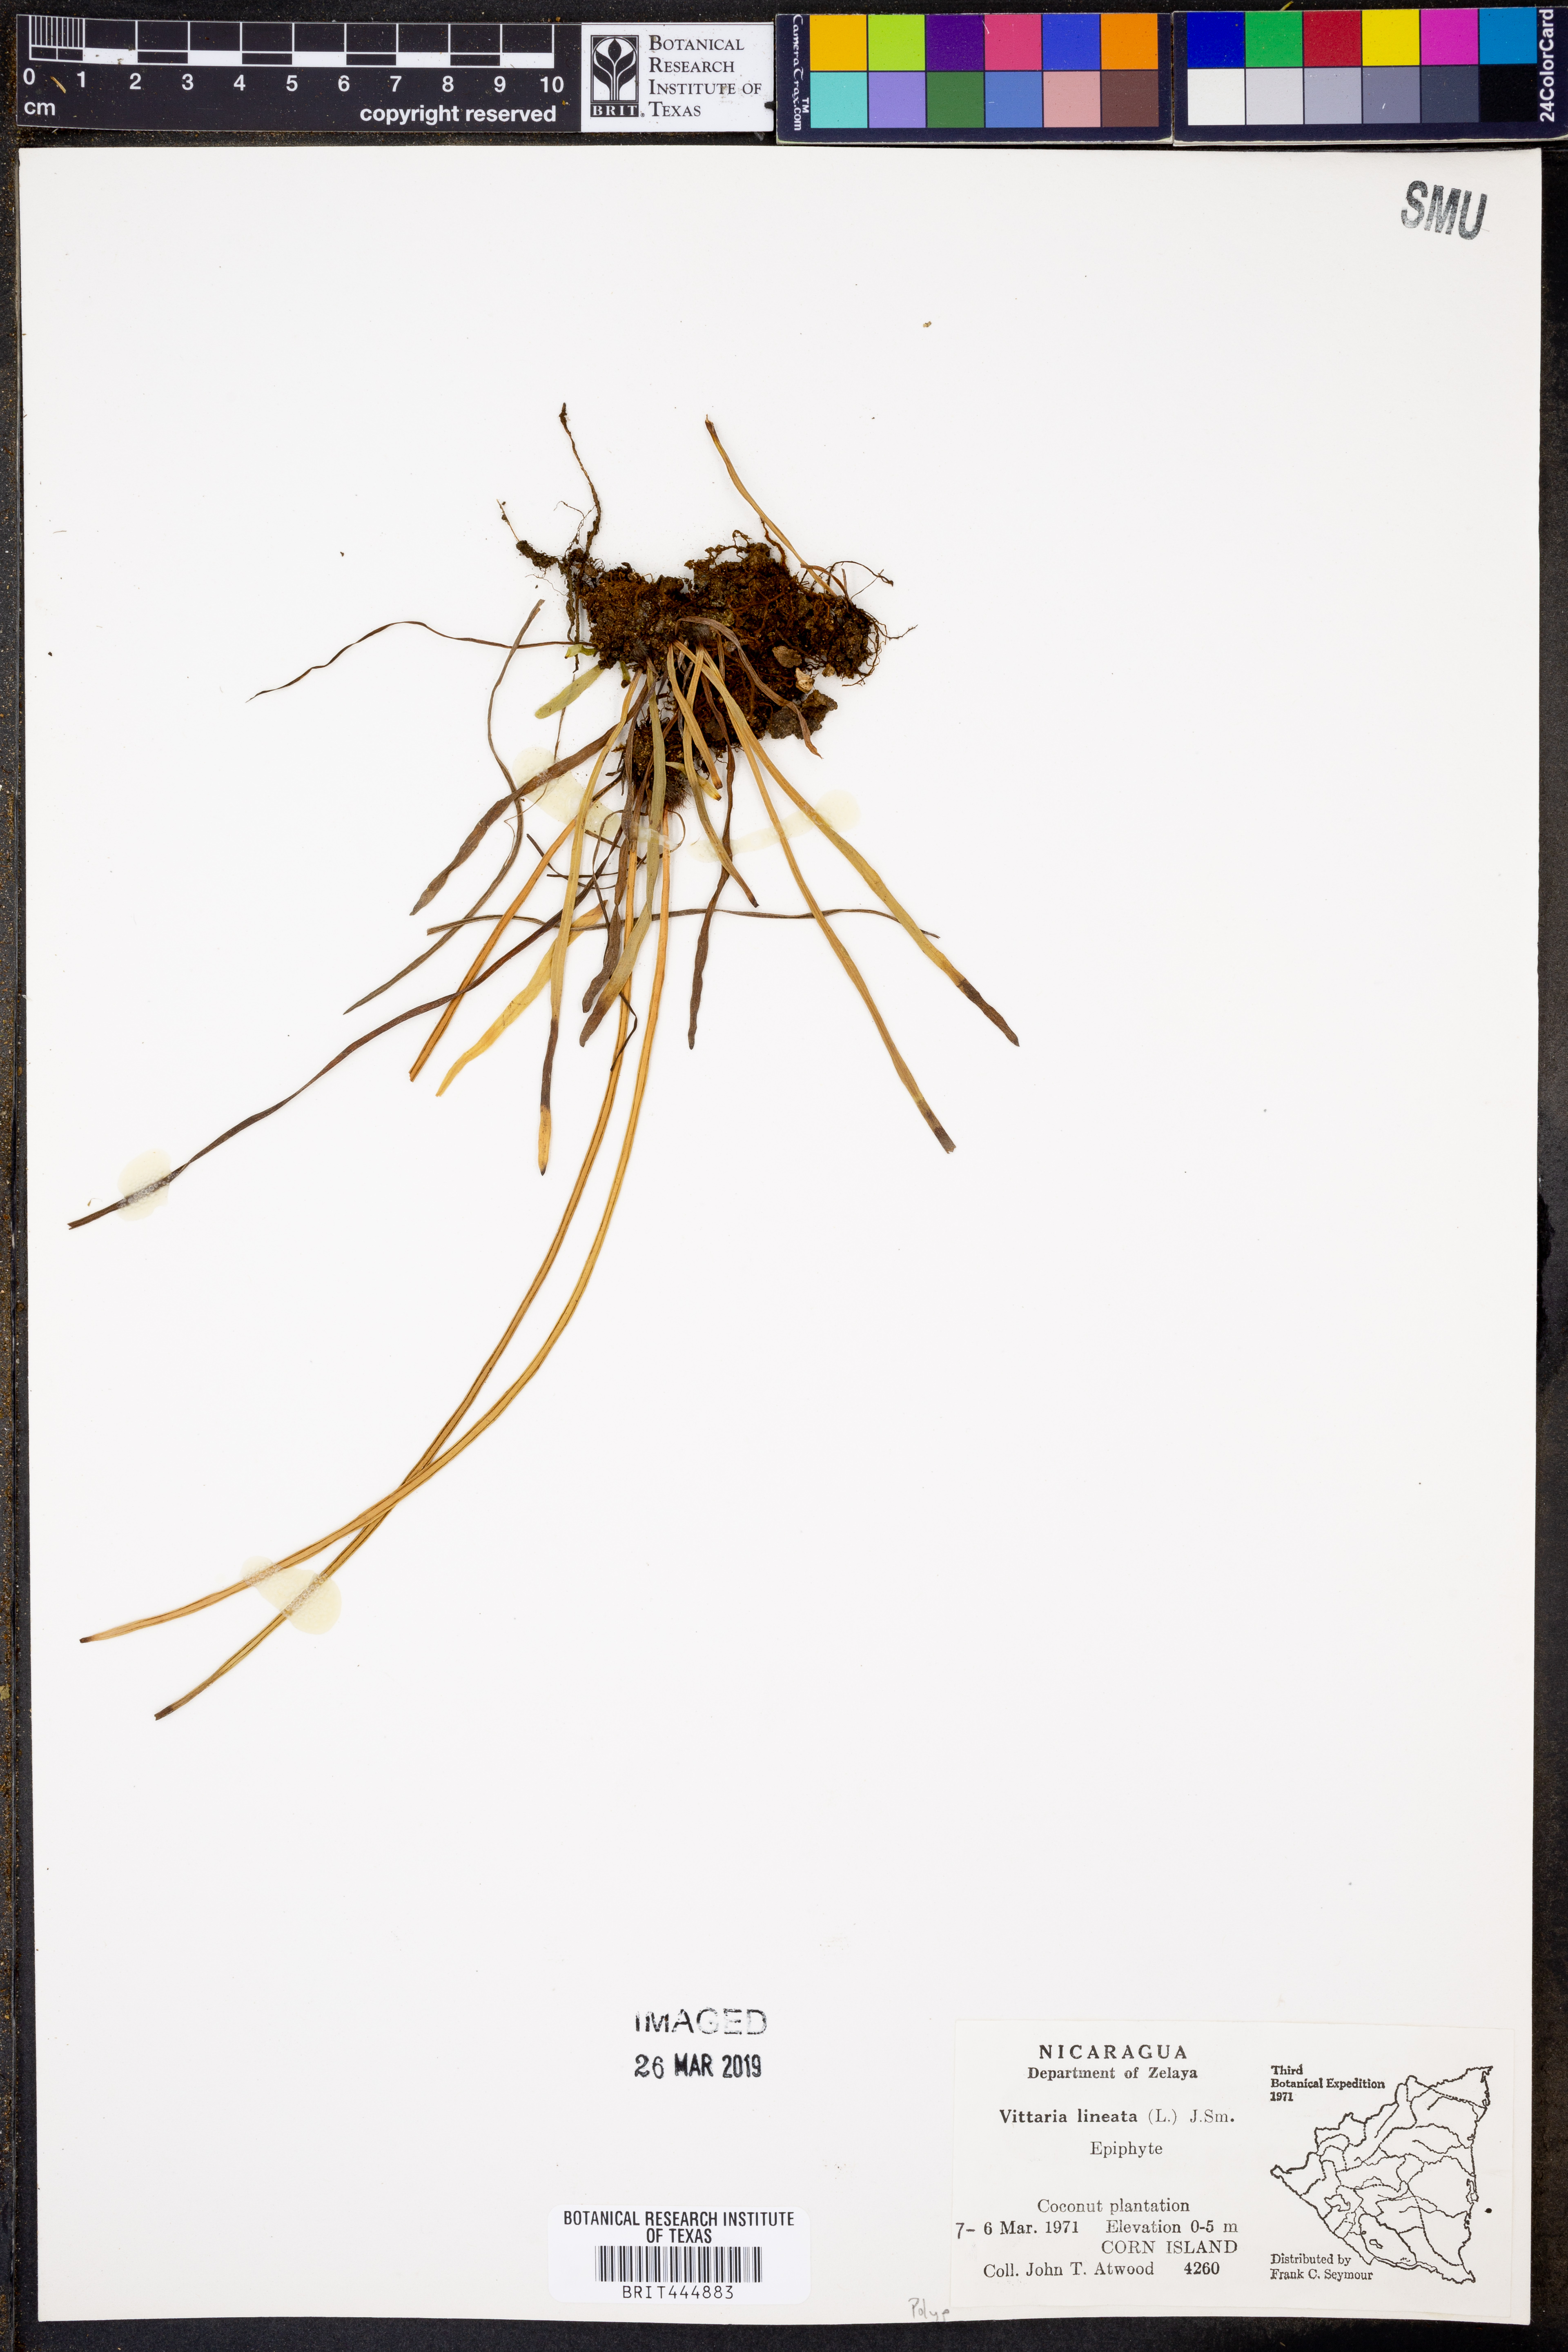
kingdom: Plantae
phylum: Tracheophyta
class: Polypodiopsida
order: Polypodiales
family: Pteridaceae
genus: Vittaria
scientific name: Vittaria lineata
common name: Shoestring fern
